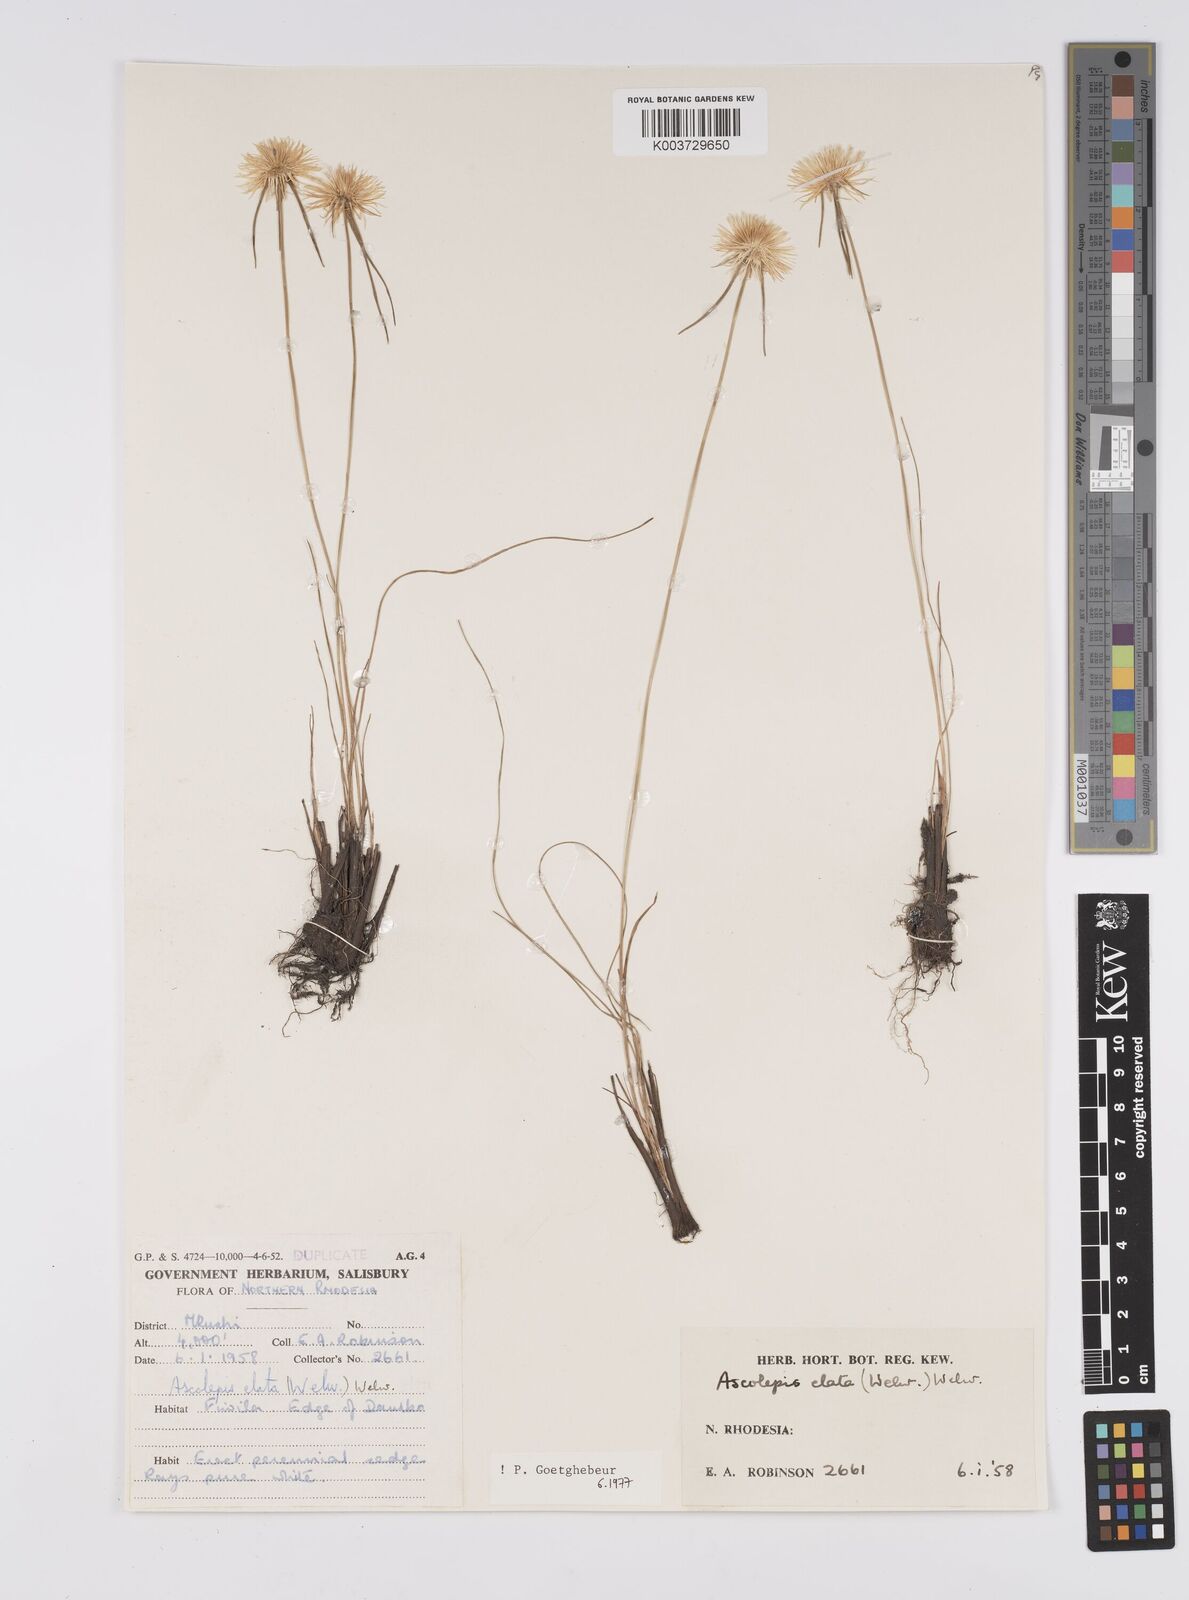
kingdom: Plantae
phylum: Tracheophyta
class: Liliopsida
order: Poales
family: Cyperaceae
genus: Cyperus
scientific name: Cyperus
